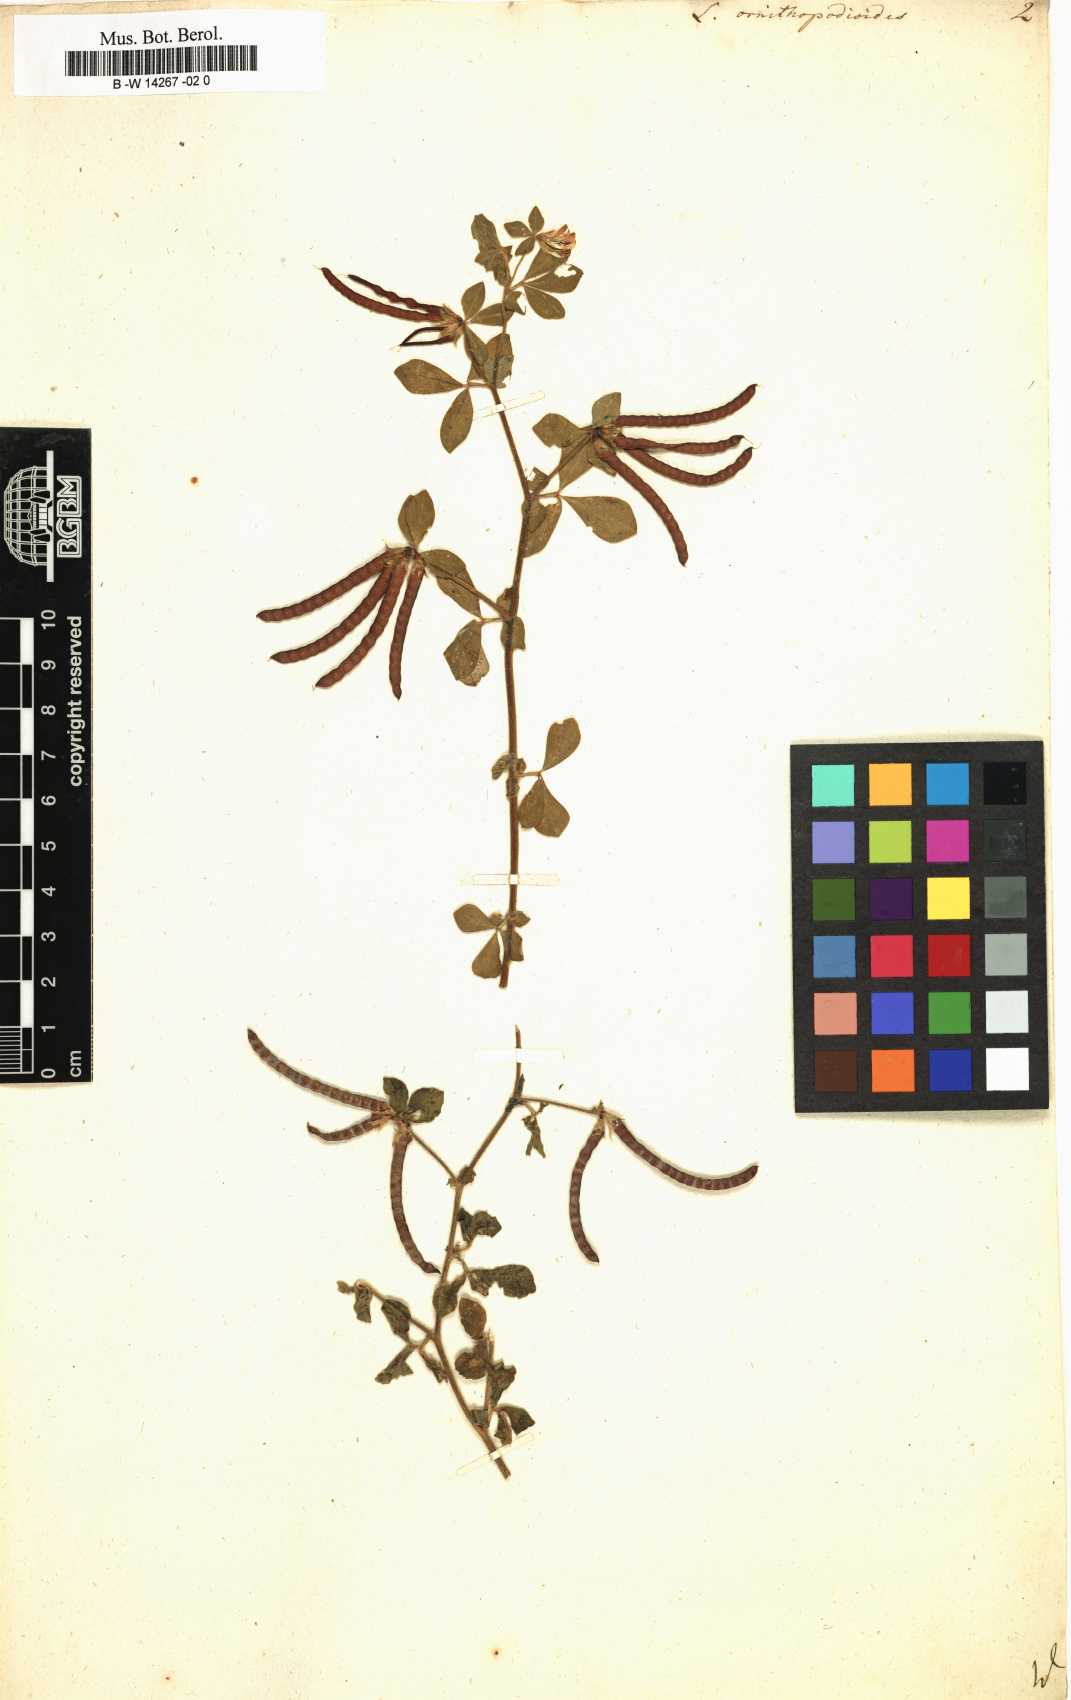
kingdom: Plantae
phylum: Tracheophyta
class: Magnoliopsida
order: Fabales
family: Fabaceae
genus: Lotus
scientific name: Lotus ornithopodioides
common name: Southern bird's-foot trefoil
